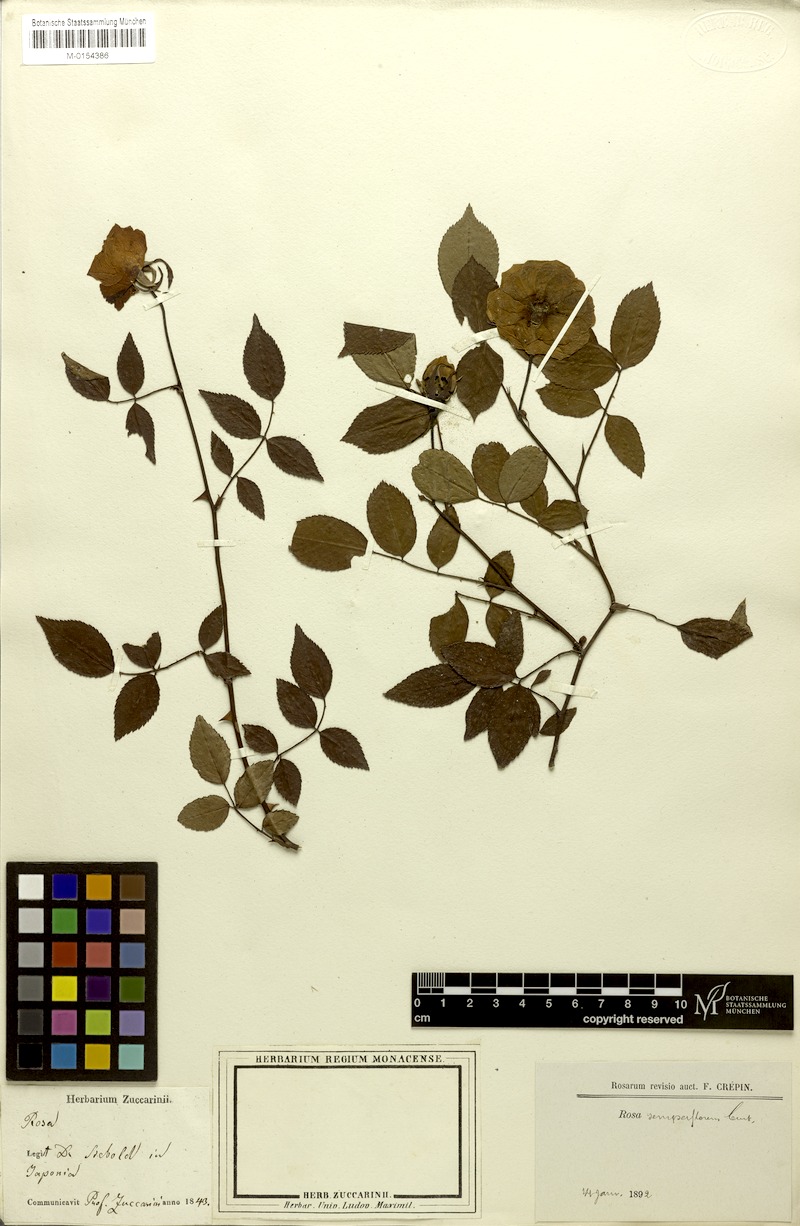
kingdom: Plantae
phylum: Tracheophyta
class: Magnoliopsida
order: Rosales
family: Rosaceae
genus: Rosa
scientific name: Rosa chinensis
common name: China rose
